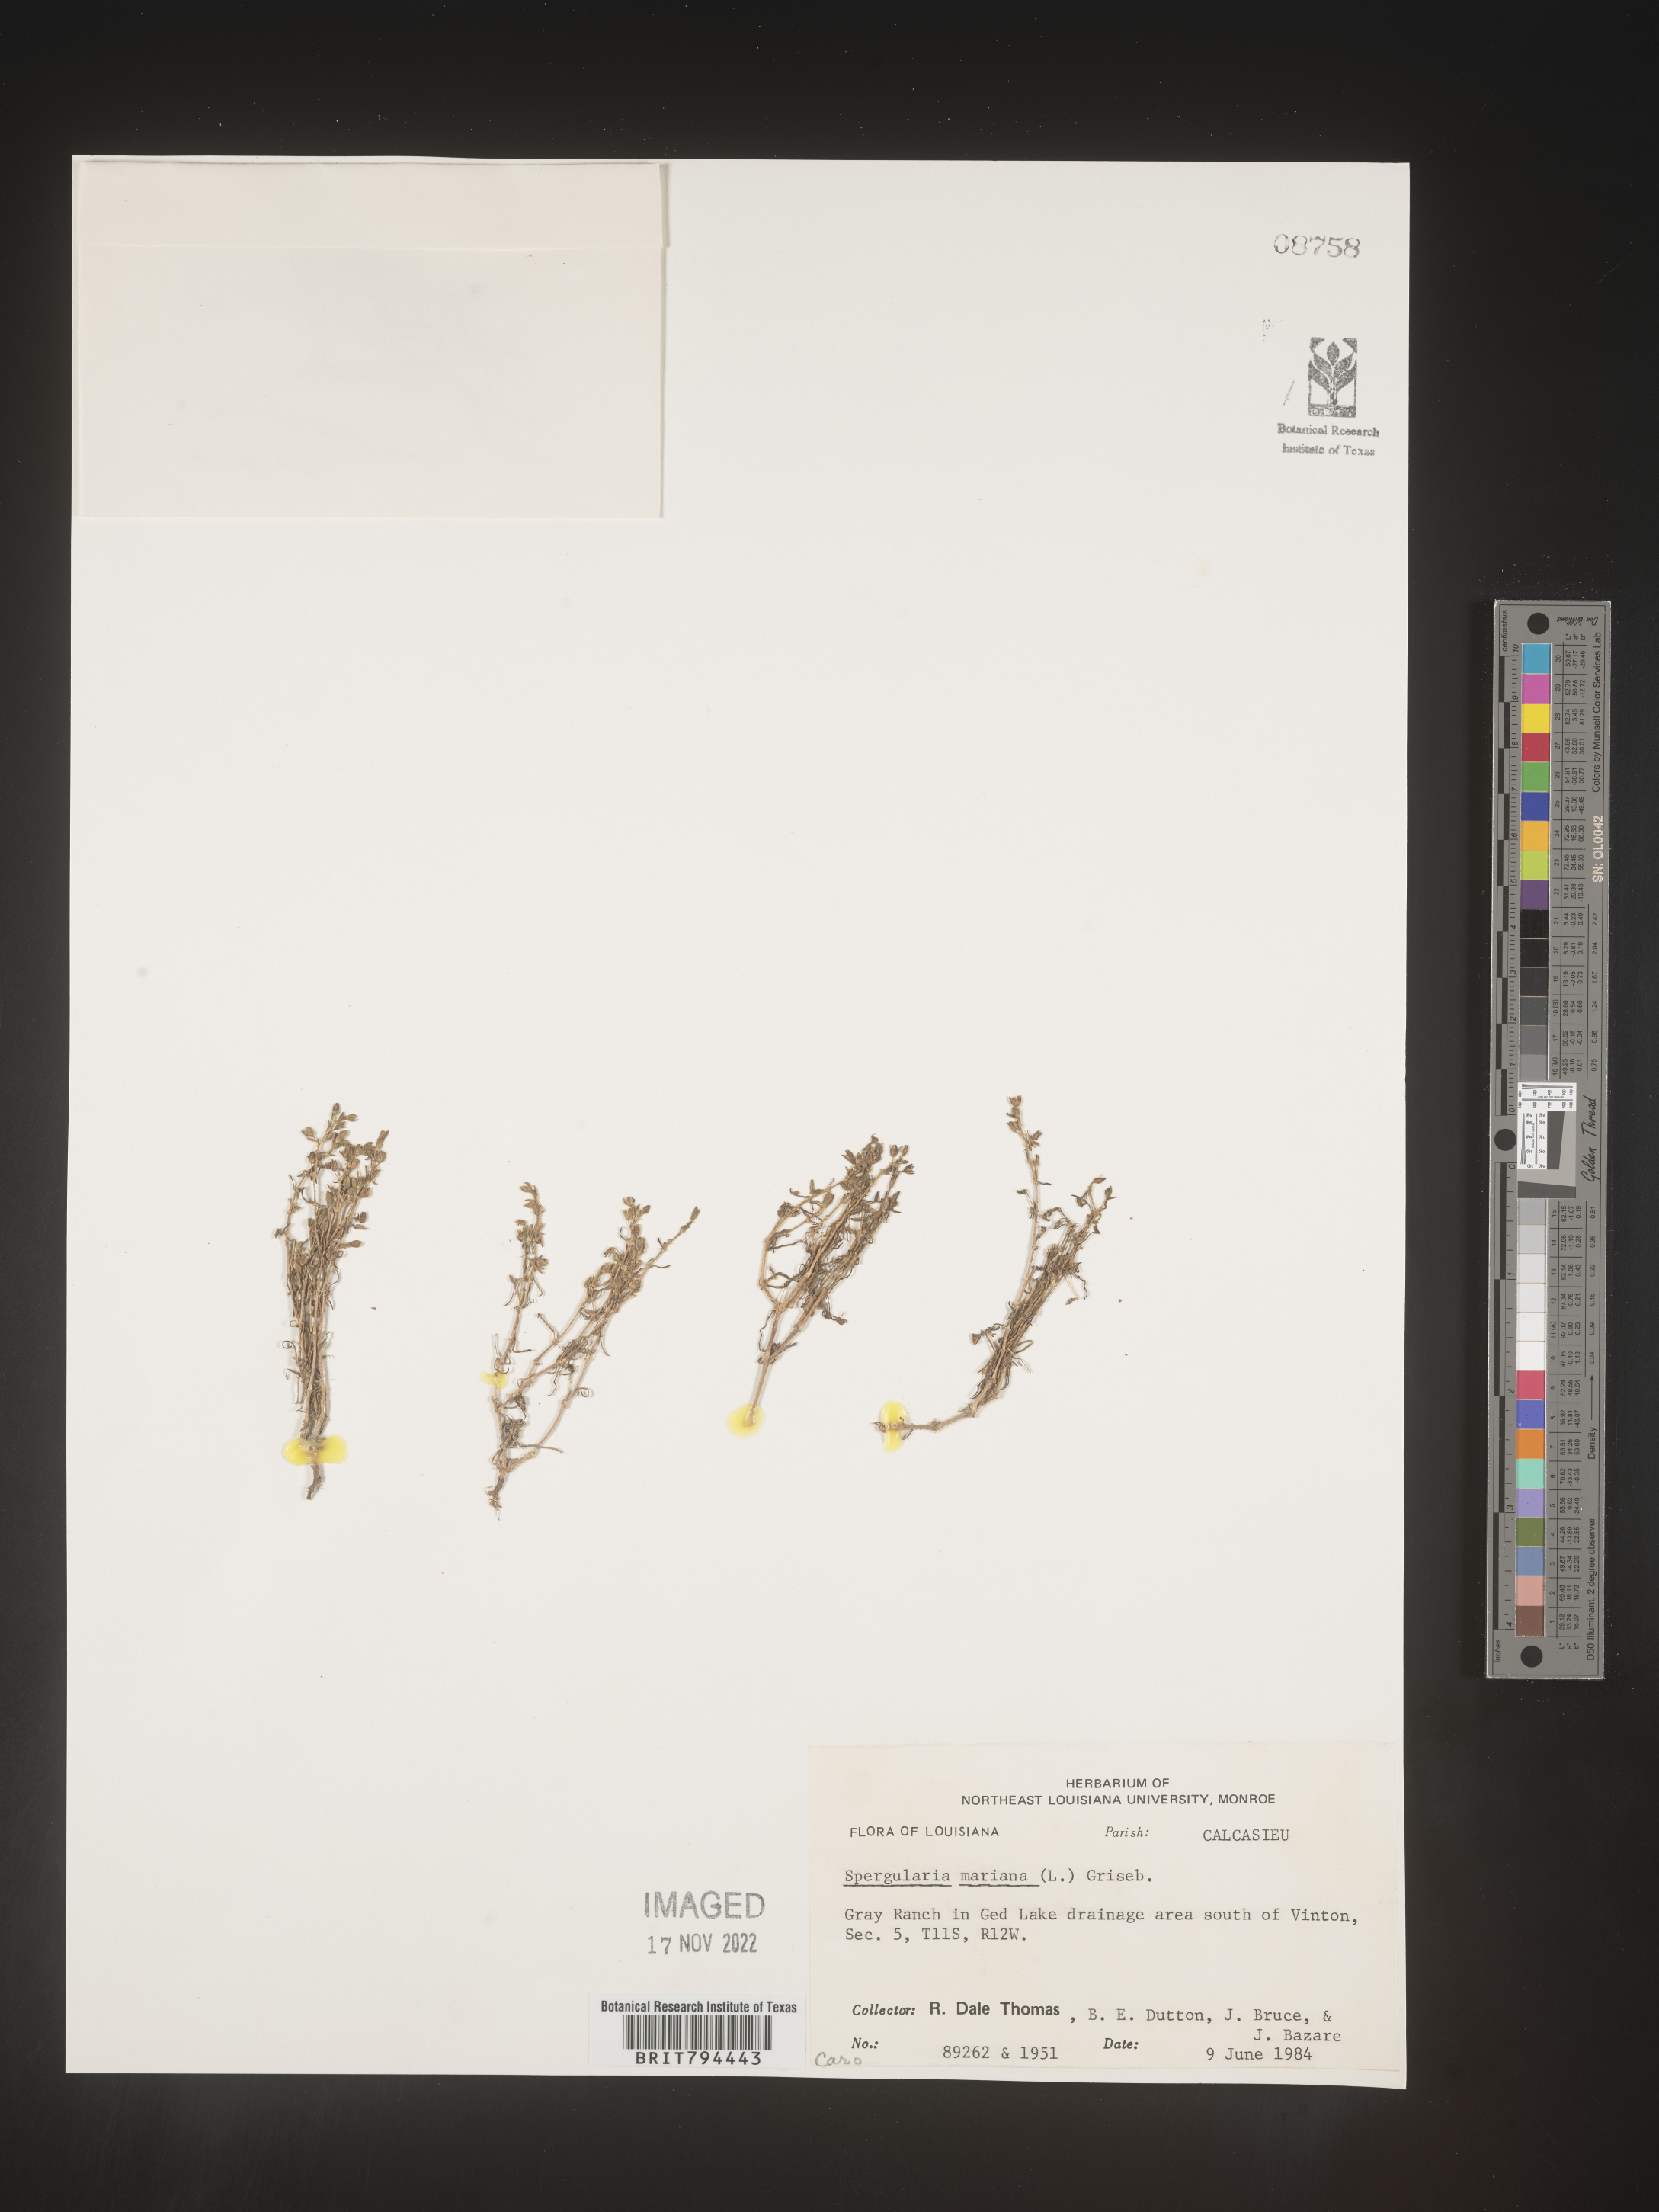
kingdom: Plantae
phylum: Tracheophyta
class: Magnoliopsida
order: Caryophyllales
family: Caryophyllaceae
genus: Spergularia
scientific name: Spergularia marina
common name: Lesser sea-spurrey
